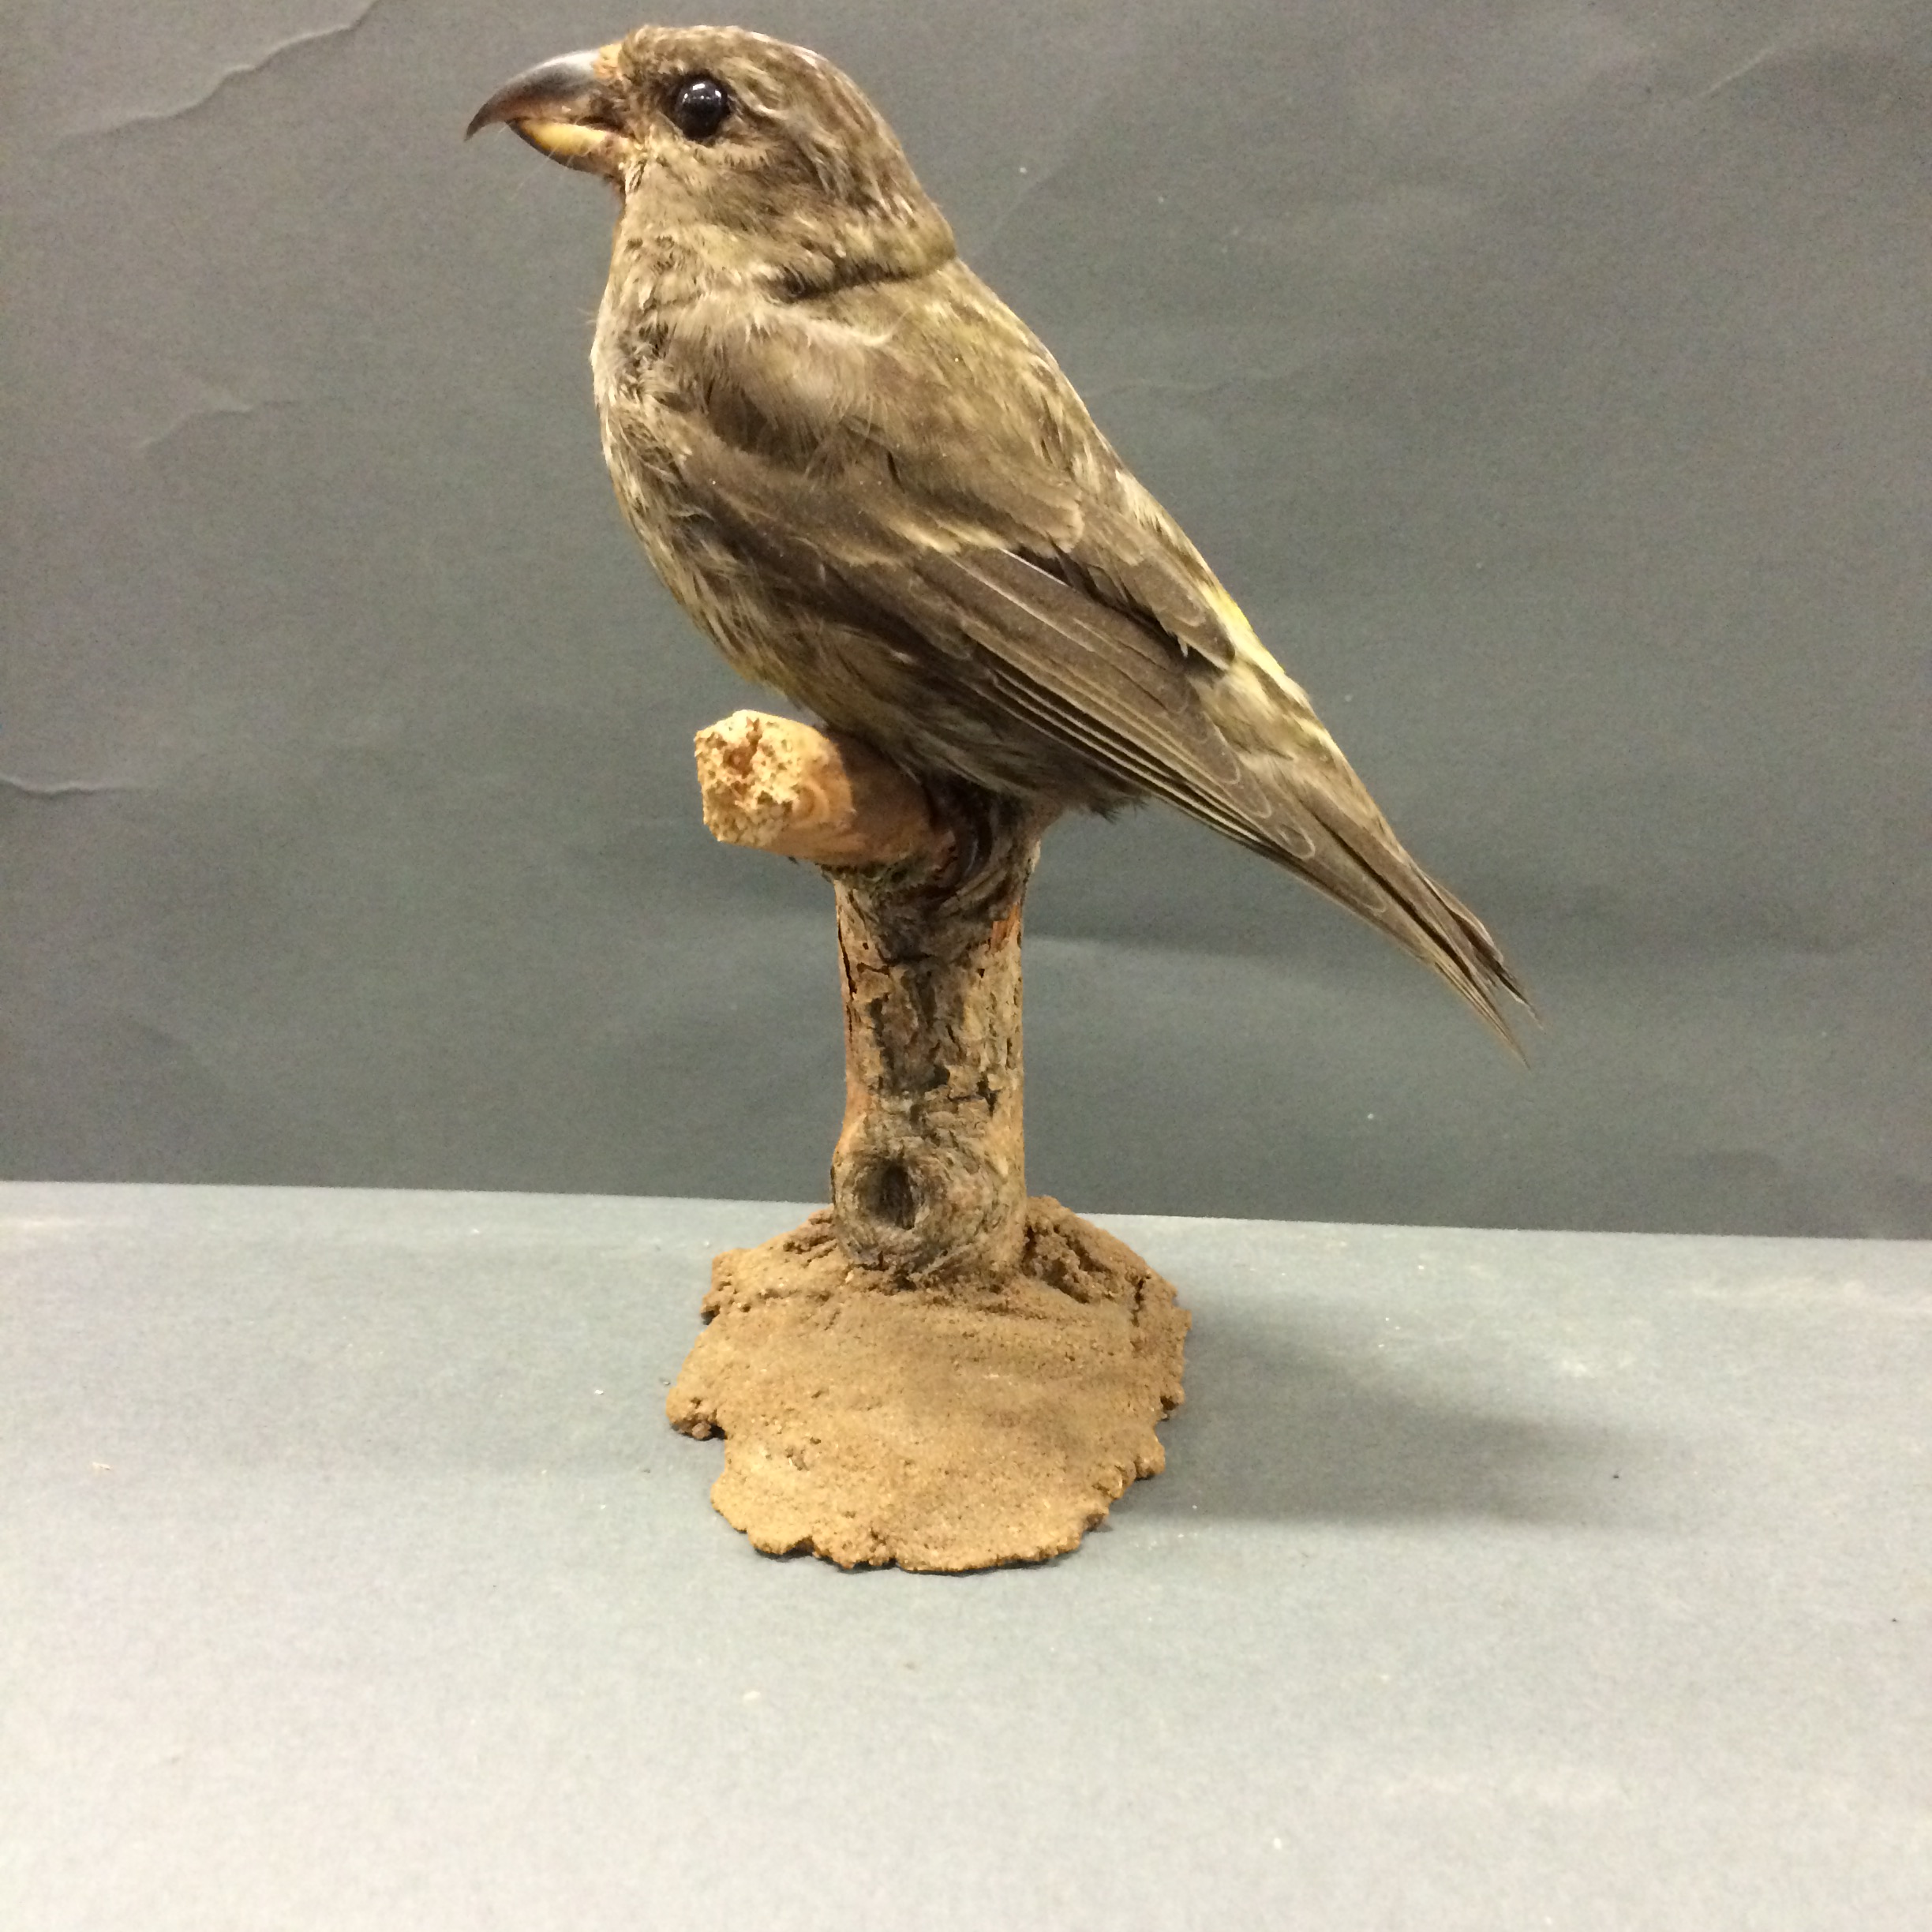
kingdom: Animalia
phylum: Chordata
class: Aves
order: Passeriformes
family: Fringillidae
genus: Loxia
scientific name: Loxia curvirostra
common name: Red crossbill
